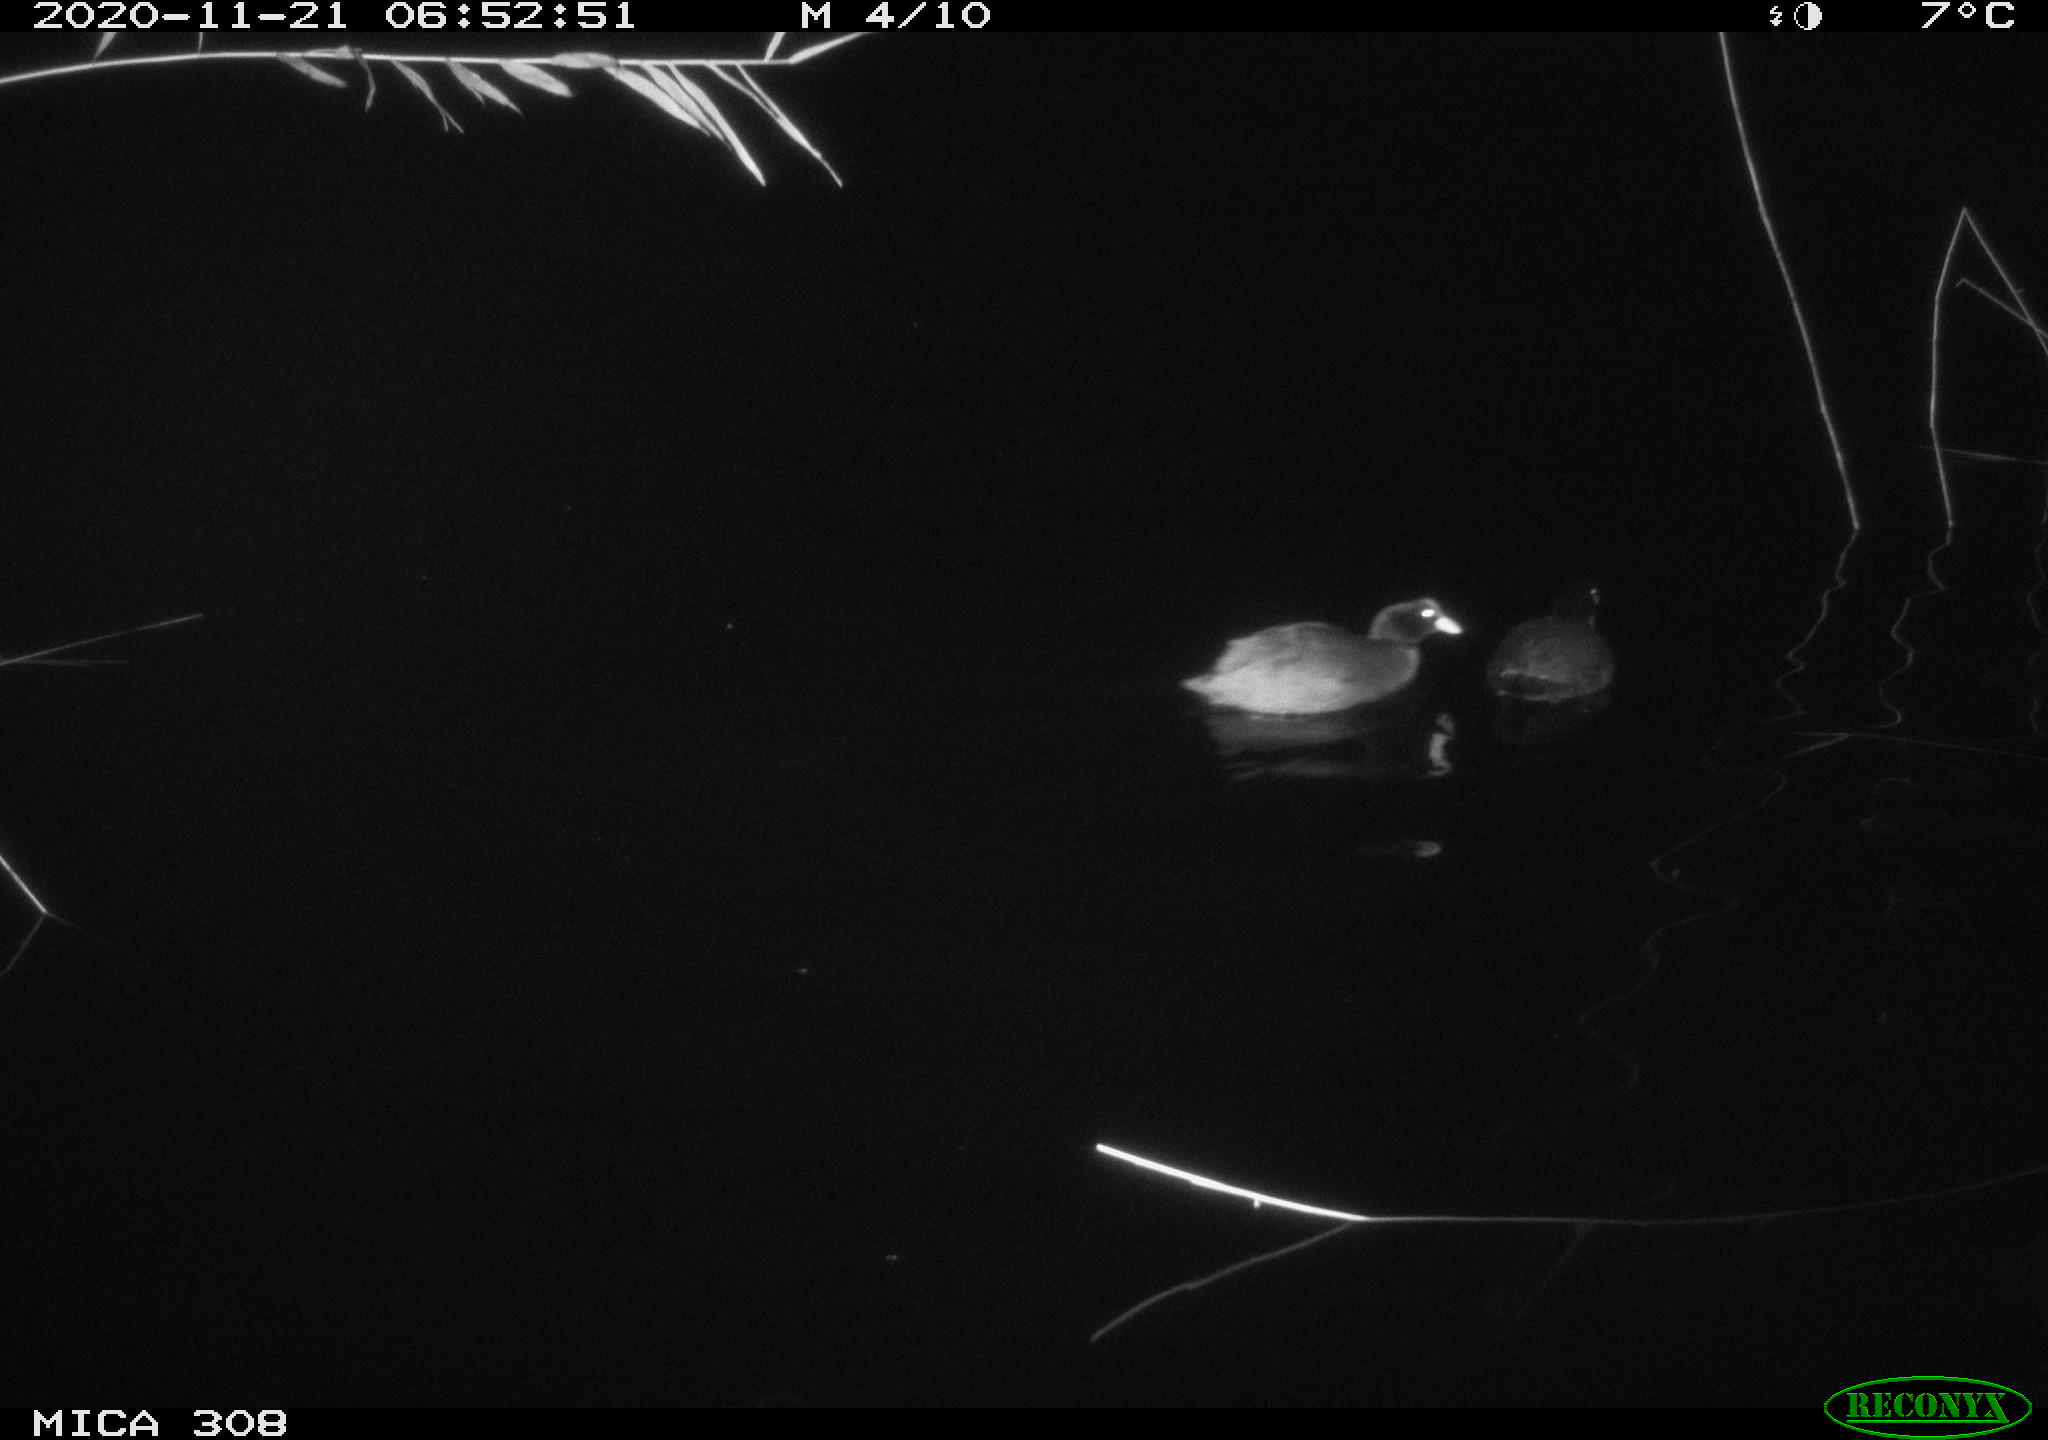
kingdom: Animalia
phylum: Chordata
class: Aves
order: Gruiformes
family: Rallidae
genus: Fulica
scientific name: Fulica atra
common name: Eurasian coot
